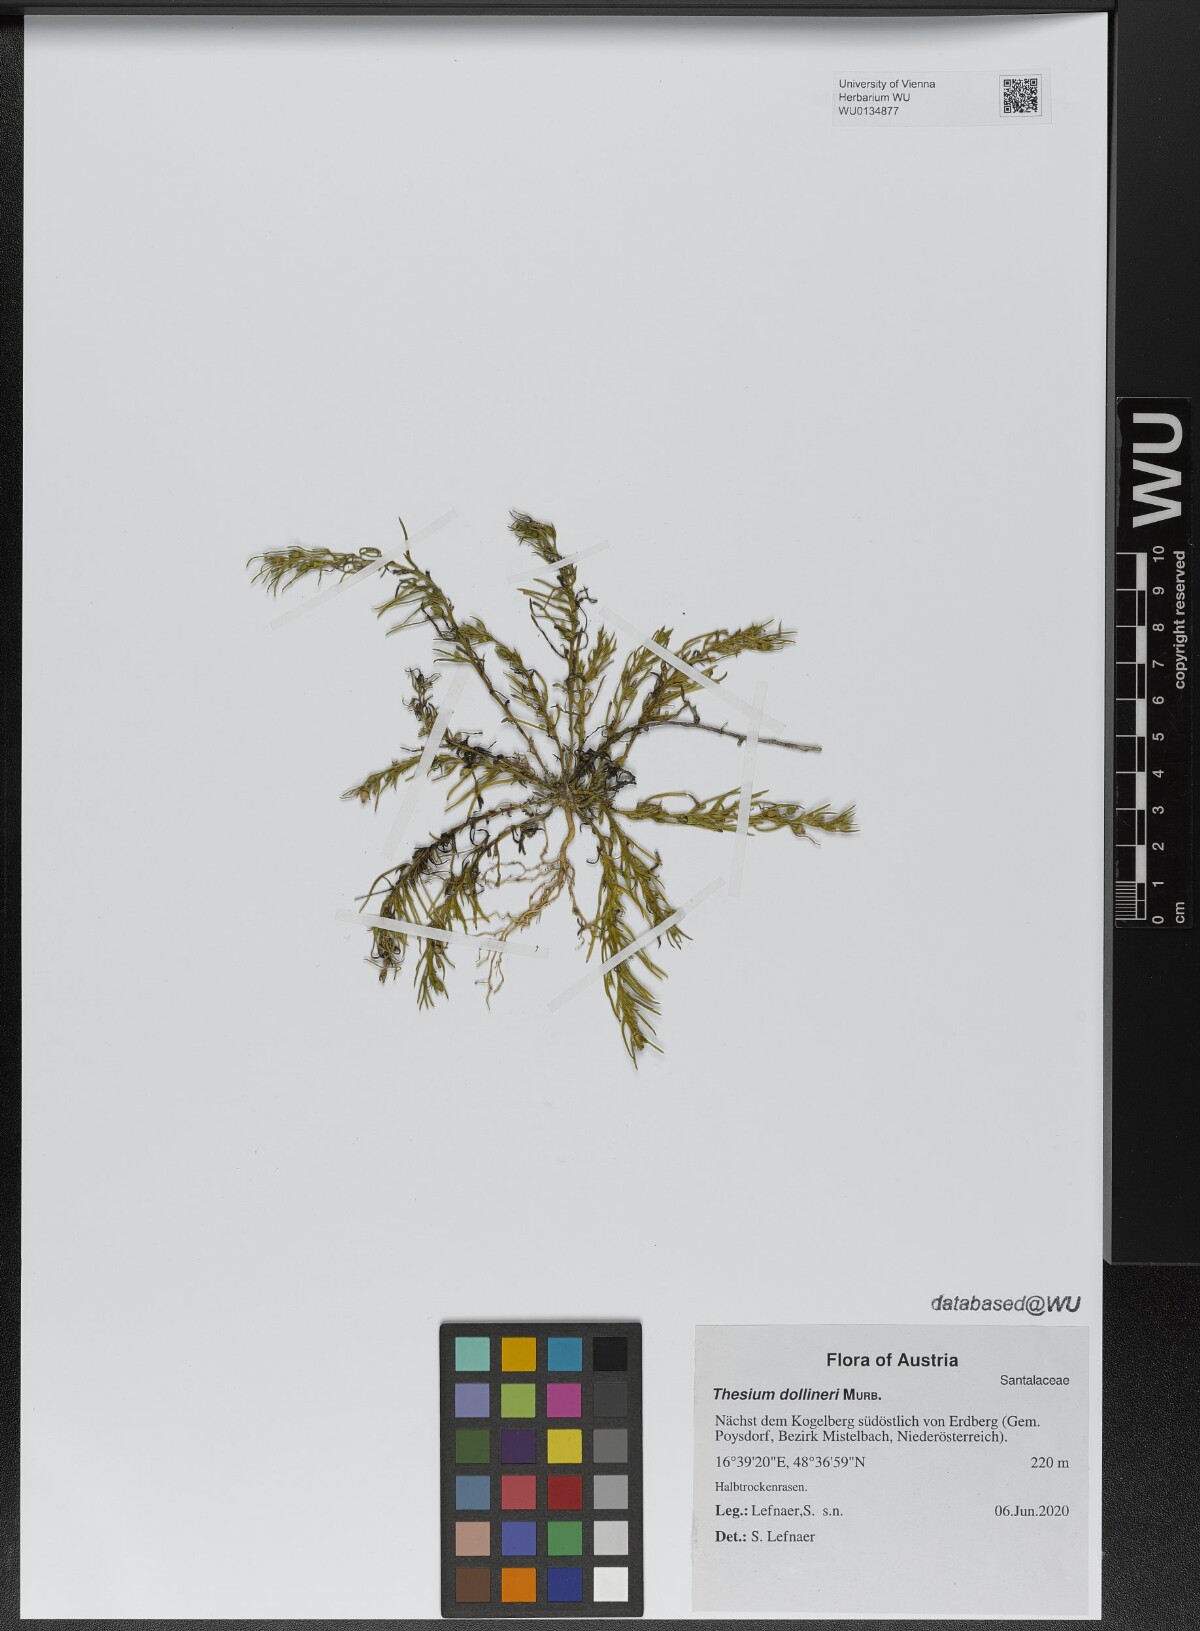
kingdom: Plantae
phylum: Tracheophyta
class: Magnoliopsida
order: Santalales
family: Thesiaceae
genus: Thesium
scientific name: Thesium dollineri
